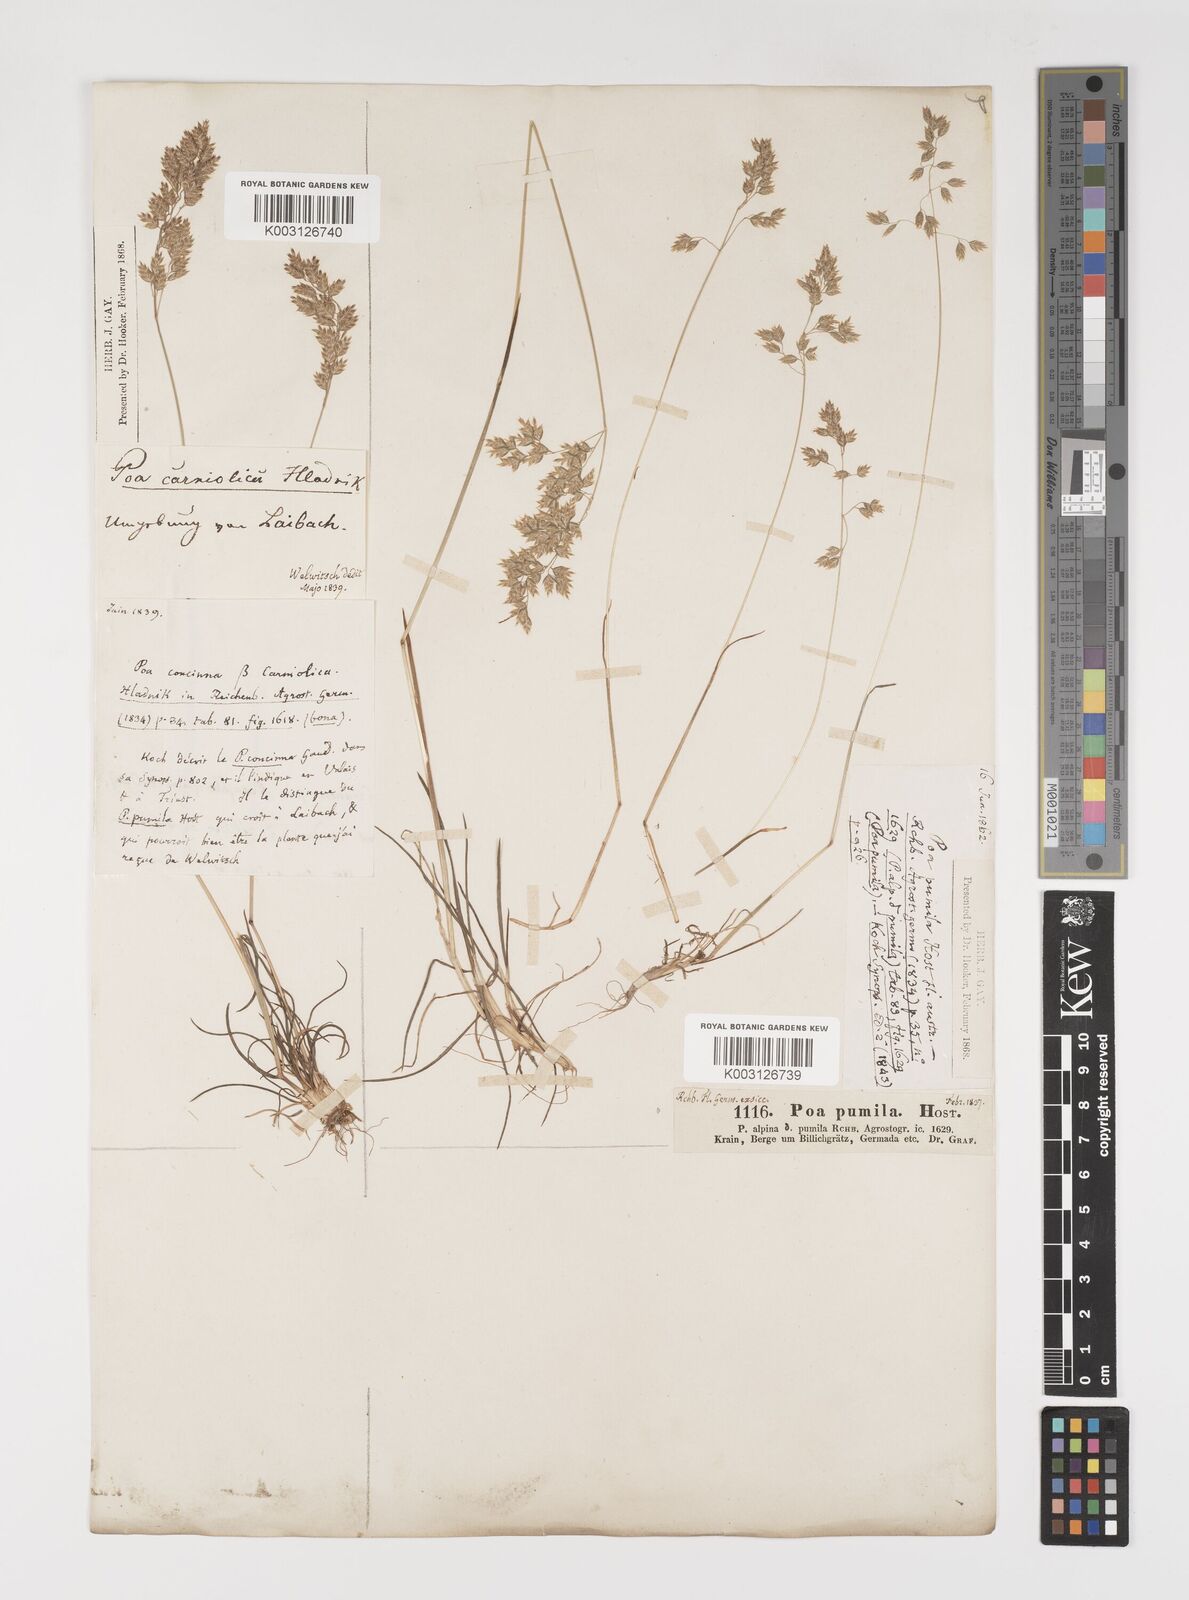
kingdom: Plantae
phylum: Tracheophyta
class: Liliopsida
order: Poales
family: Poaceae
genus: Poa
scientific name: Poa bulbosa
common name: Bulbous bluegrass
